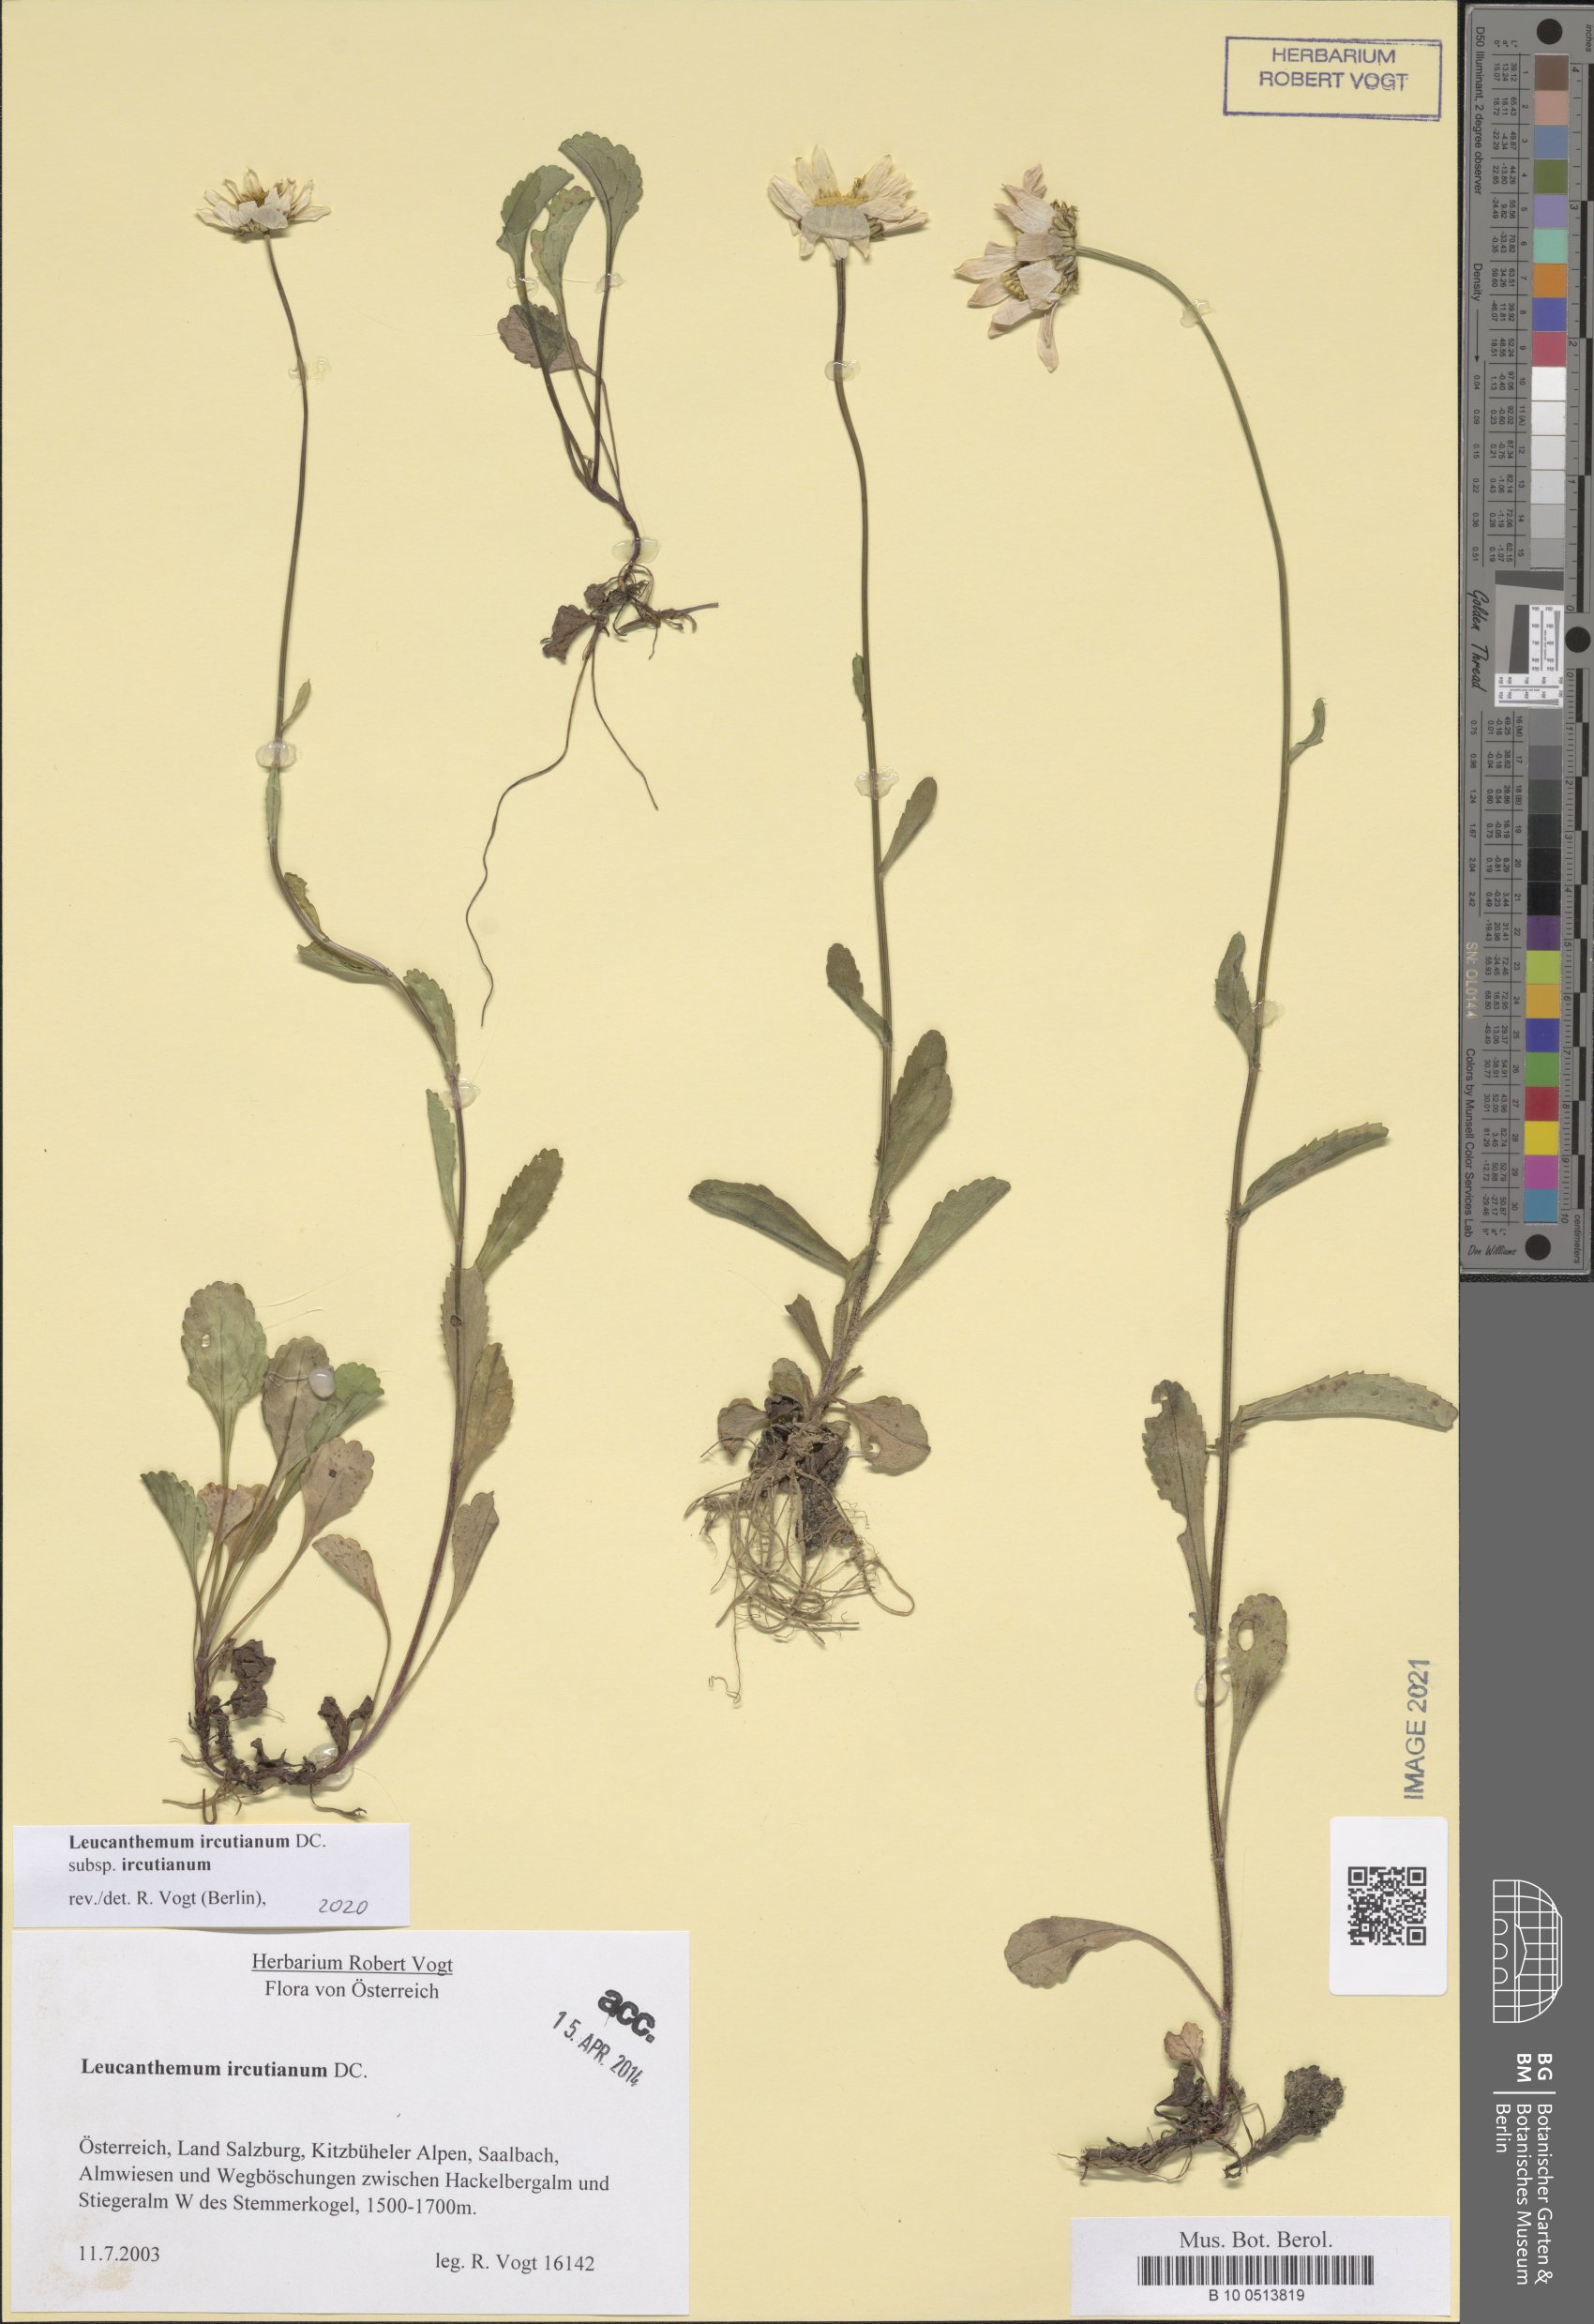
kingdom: Plantae
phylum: Tracheophyta
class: Magnoliopsida
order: Asterales
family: Asteraceae
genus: Leucanthemum
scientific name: Leucanthemum ircutianum
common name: Daisy
